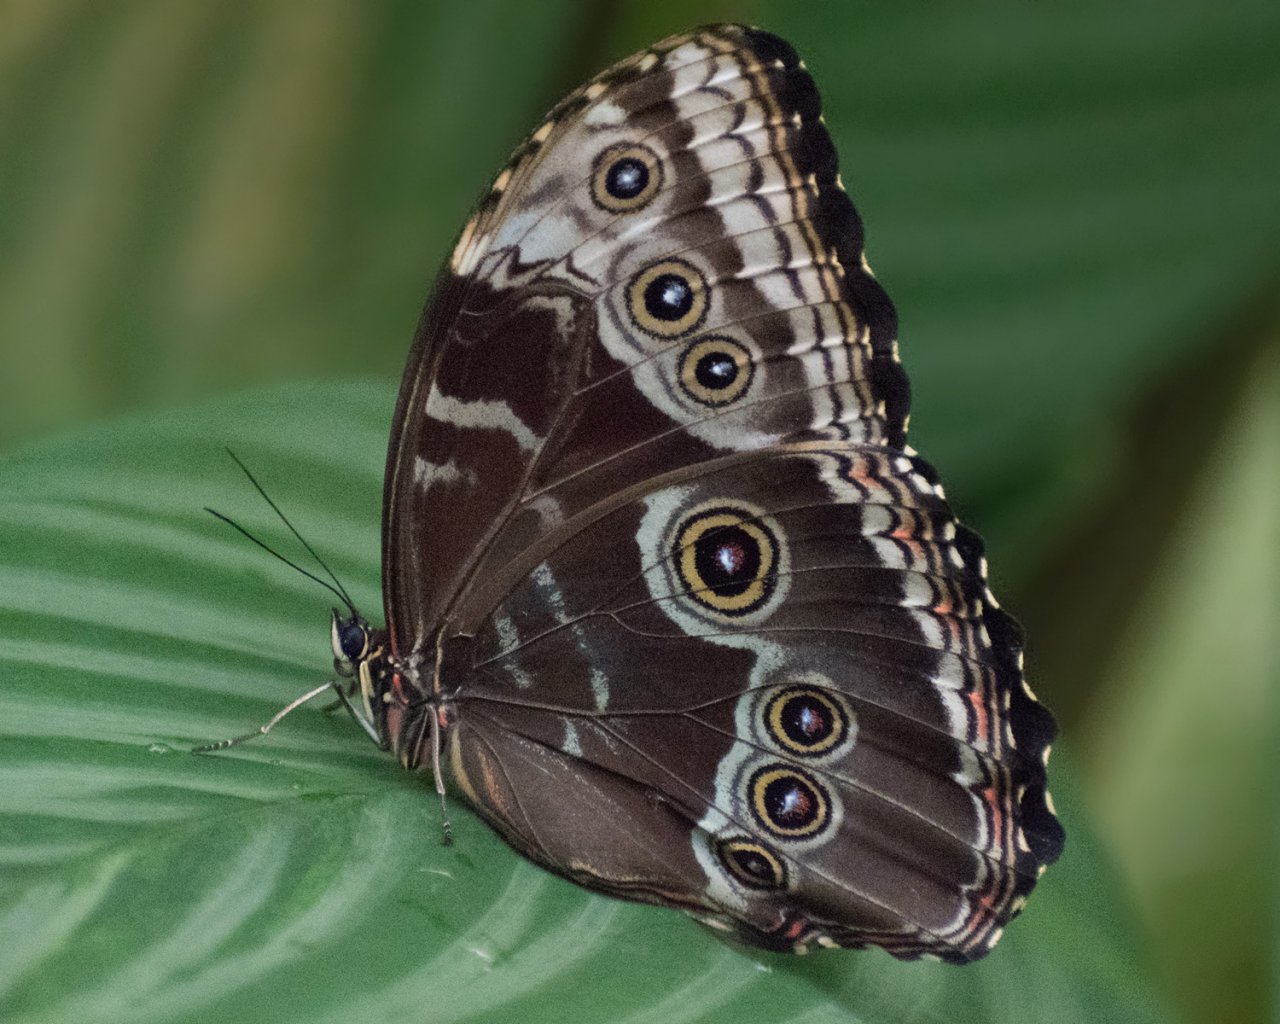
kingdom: Animalia
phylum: Arthropoda
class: Insecta
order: Lepidoptera
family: Nymphalidae
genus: Morpho
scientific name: Morpho helenor
